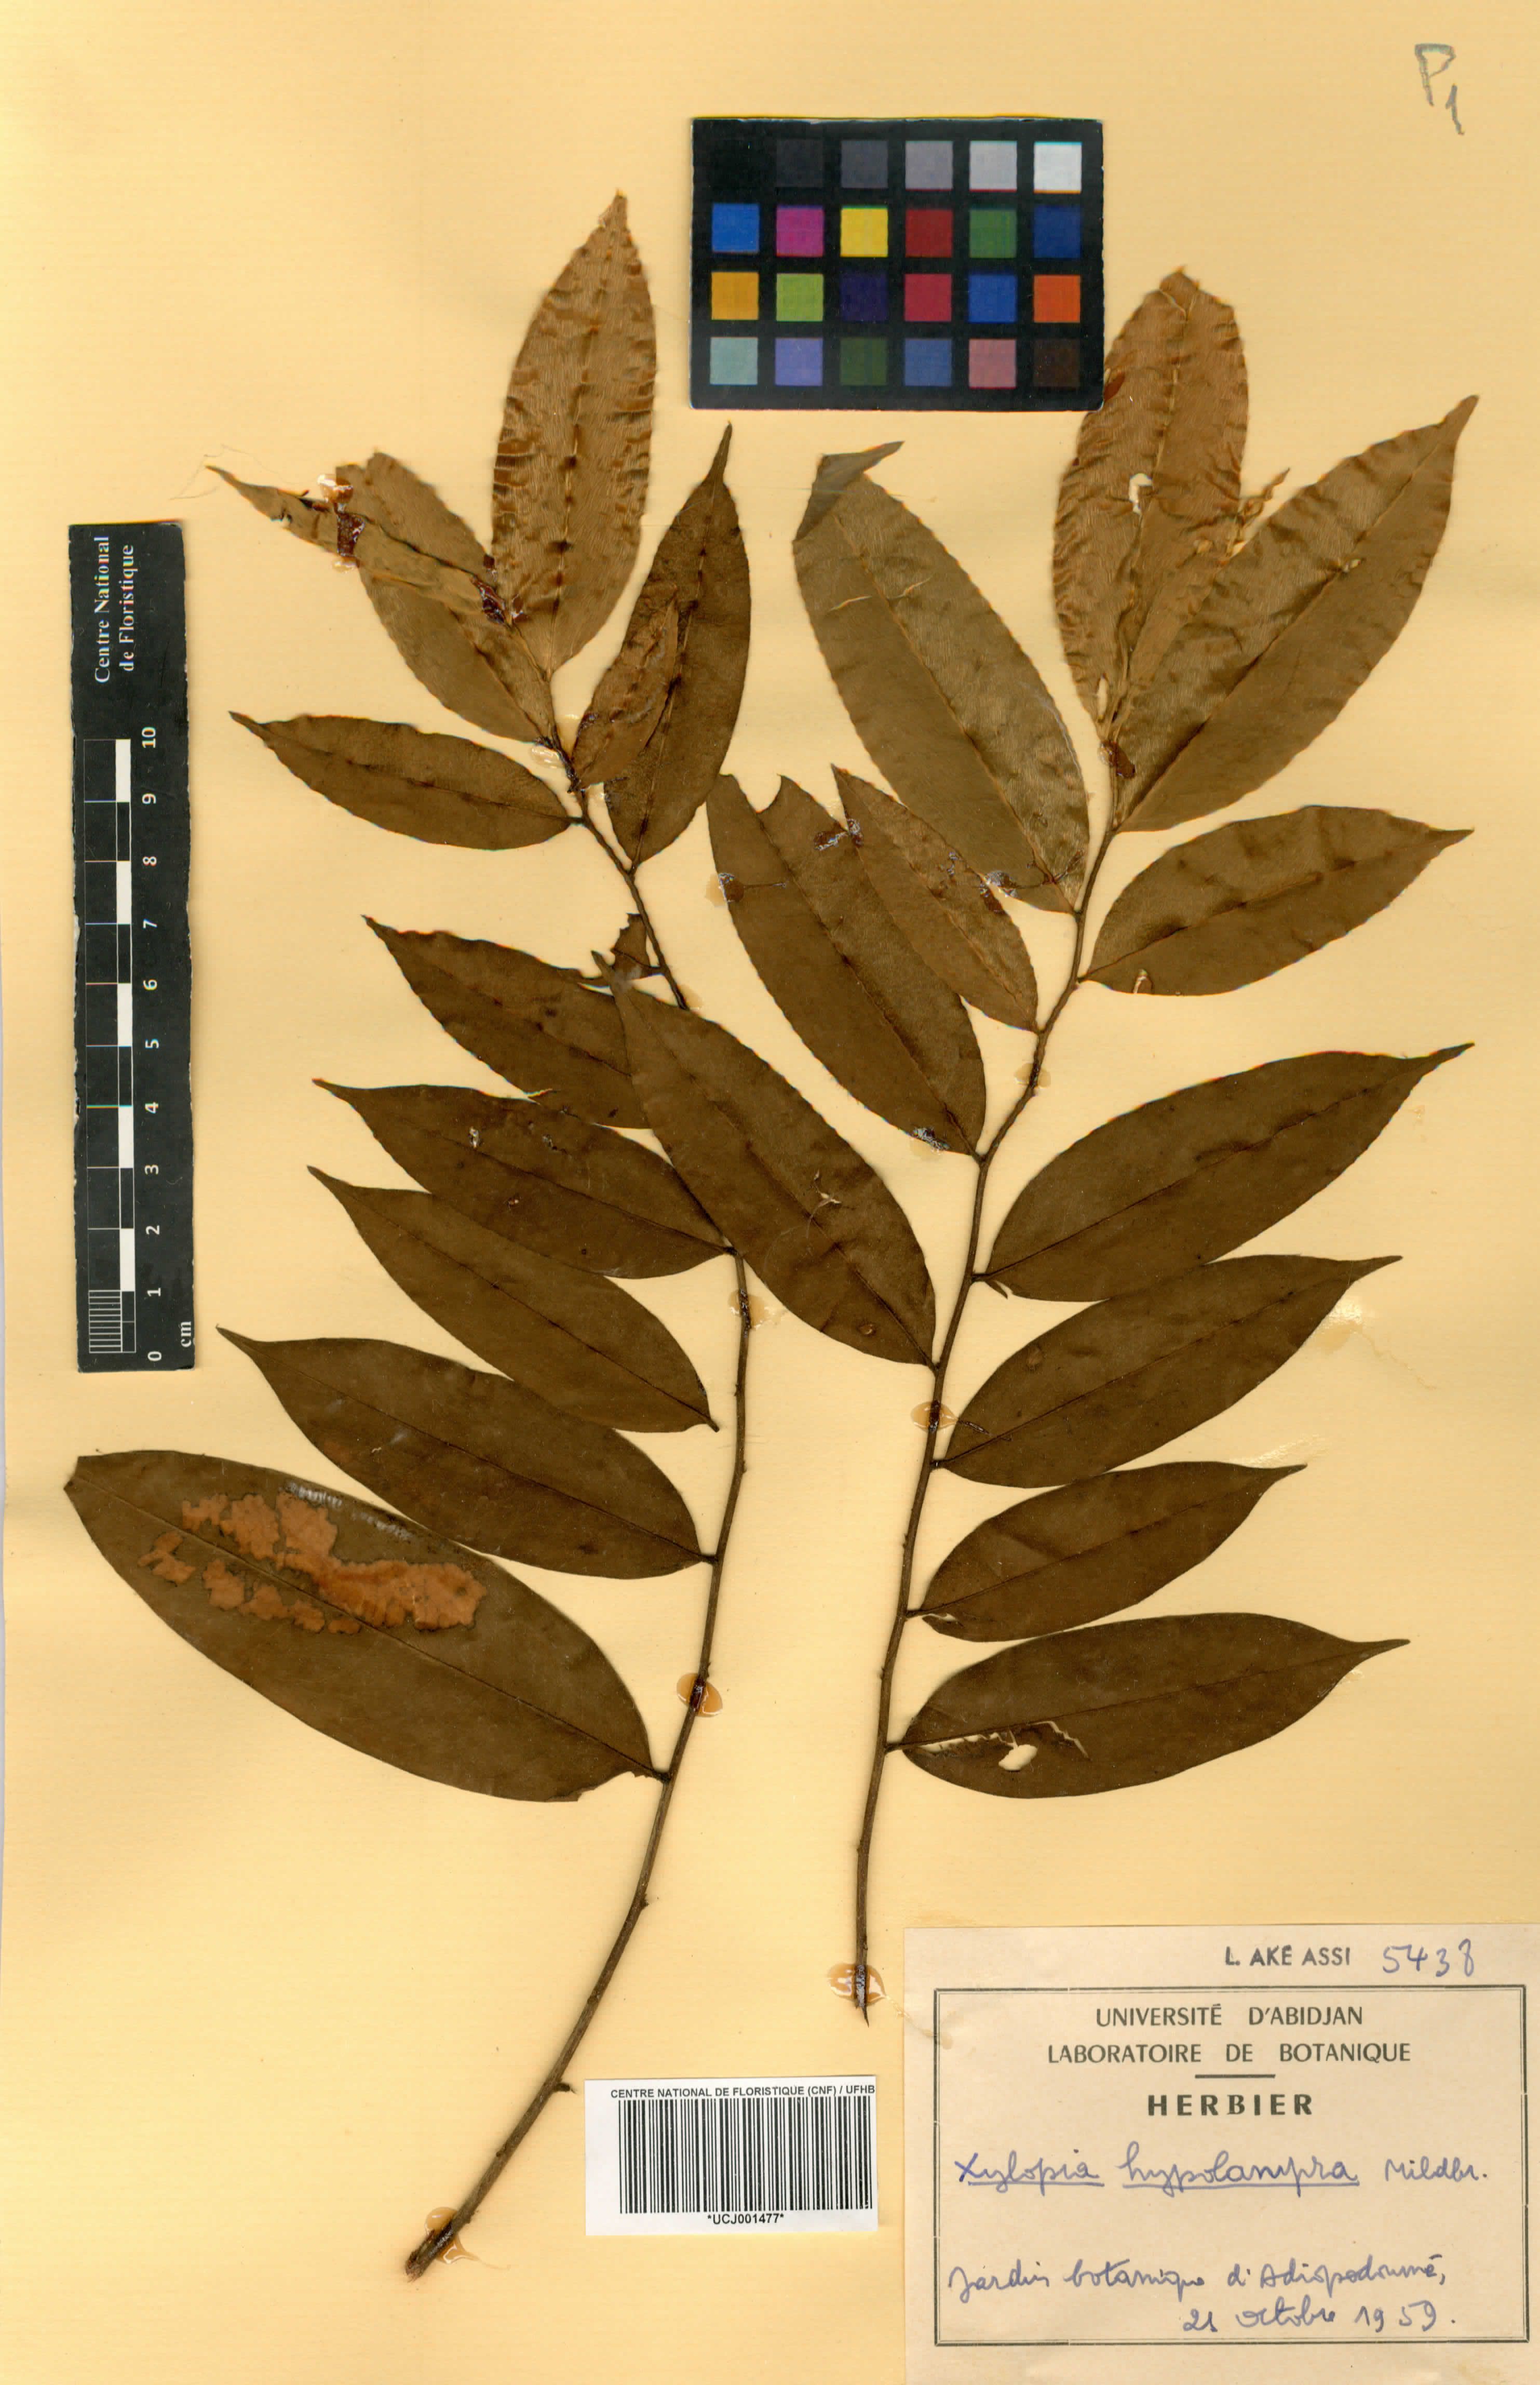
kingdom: Plantae
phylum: Tracheophyta
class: Magnoliopsida
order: Magnoliales
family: Annonaceae
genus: Xylopia
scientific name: Xylopia hypolampra
